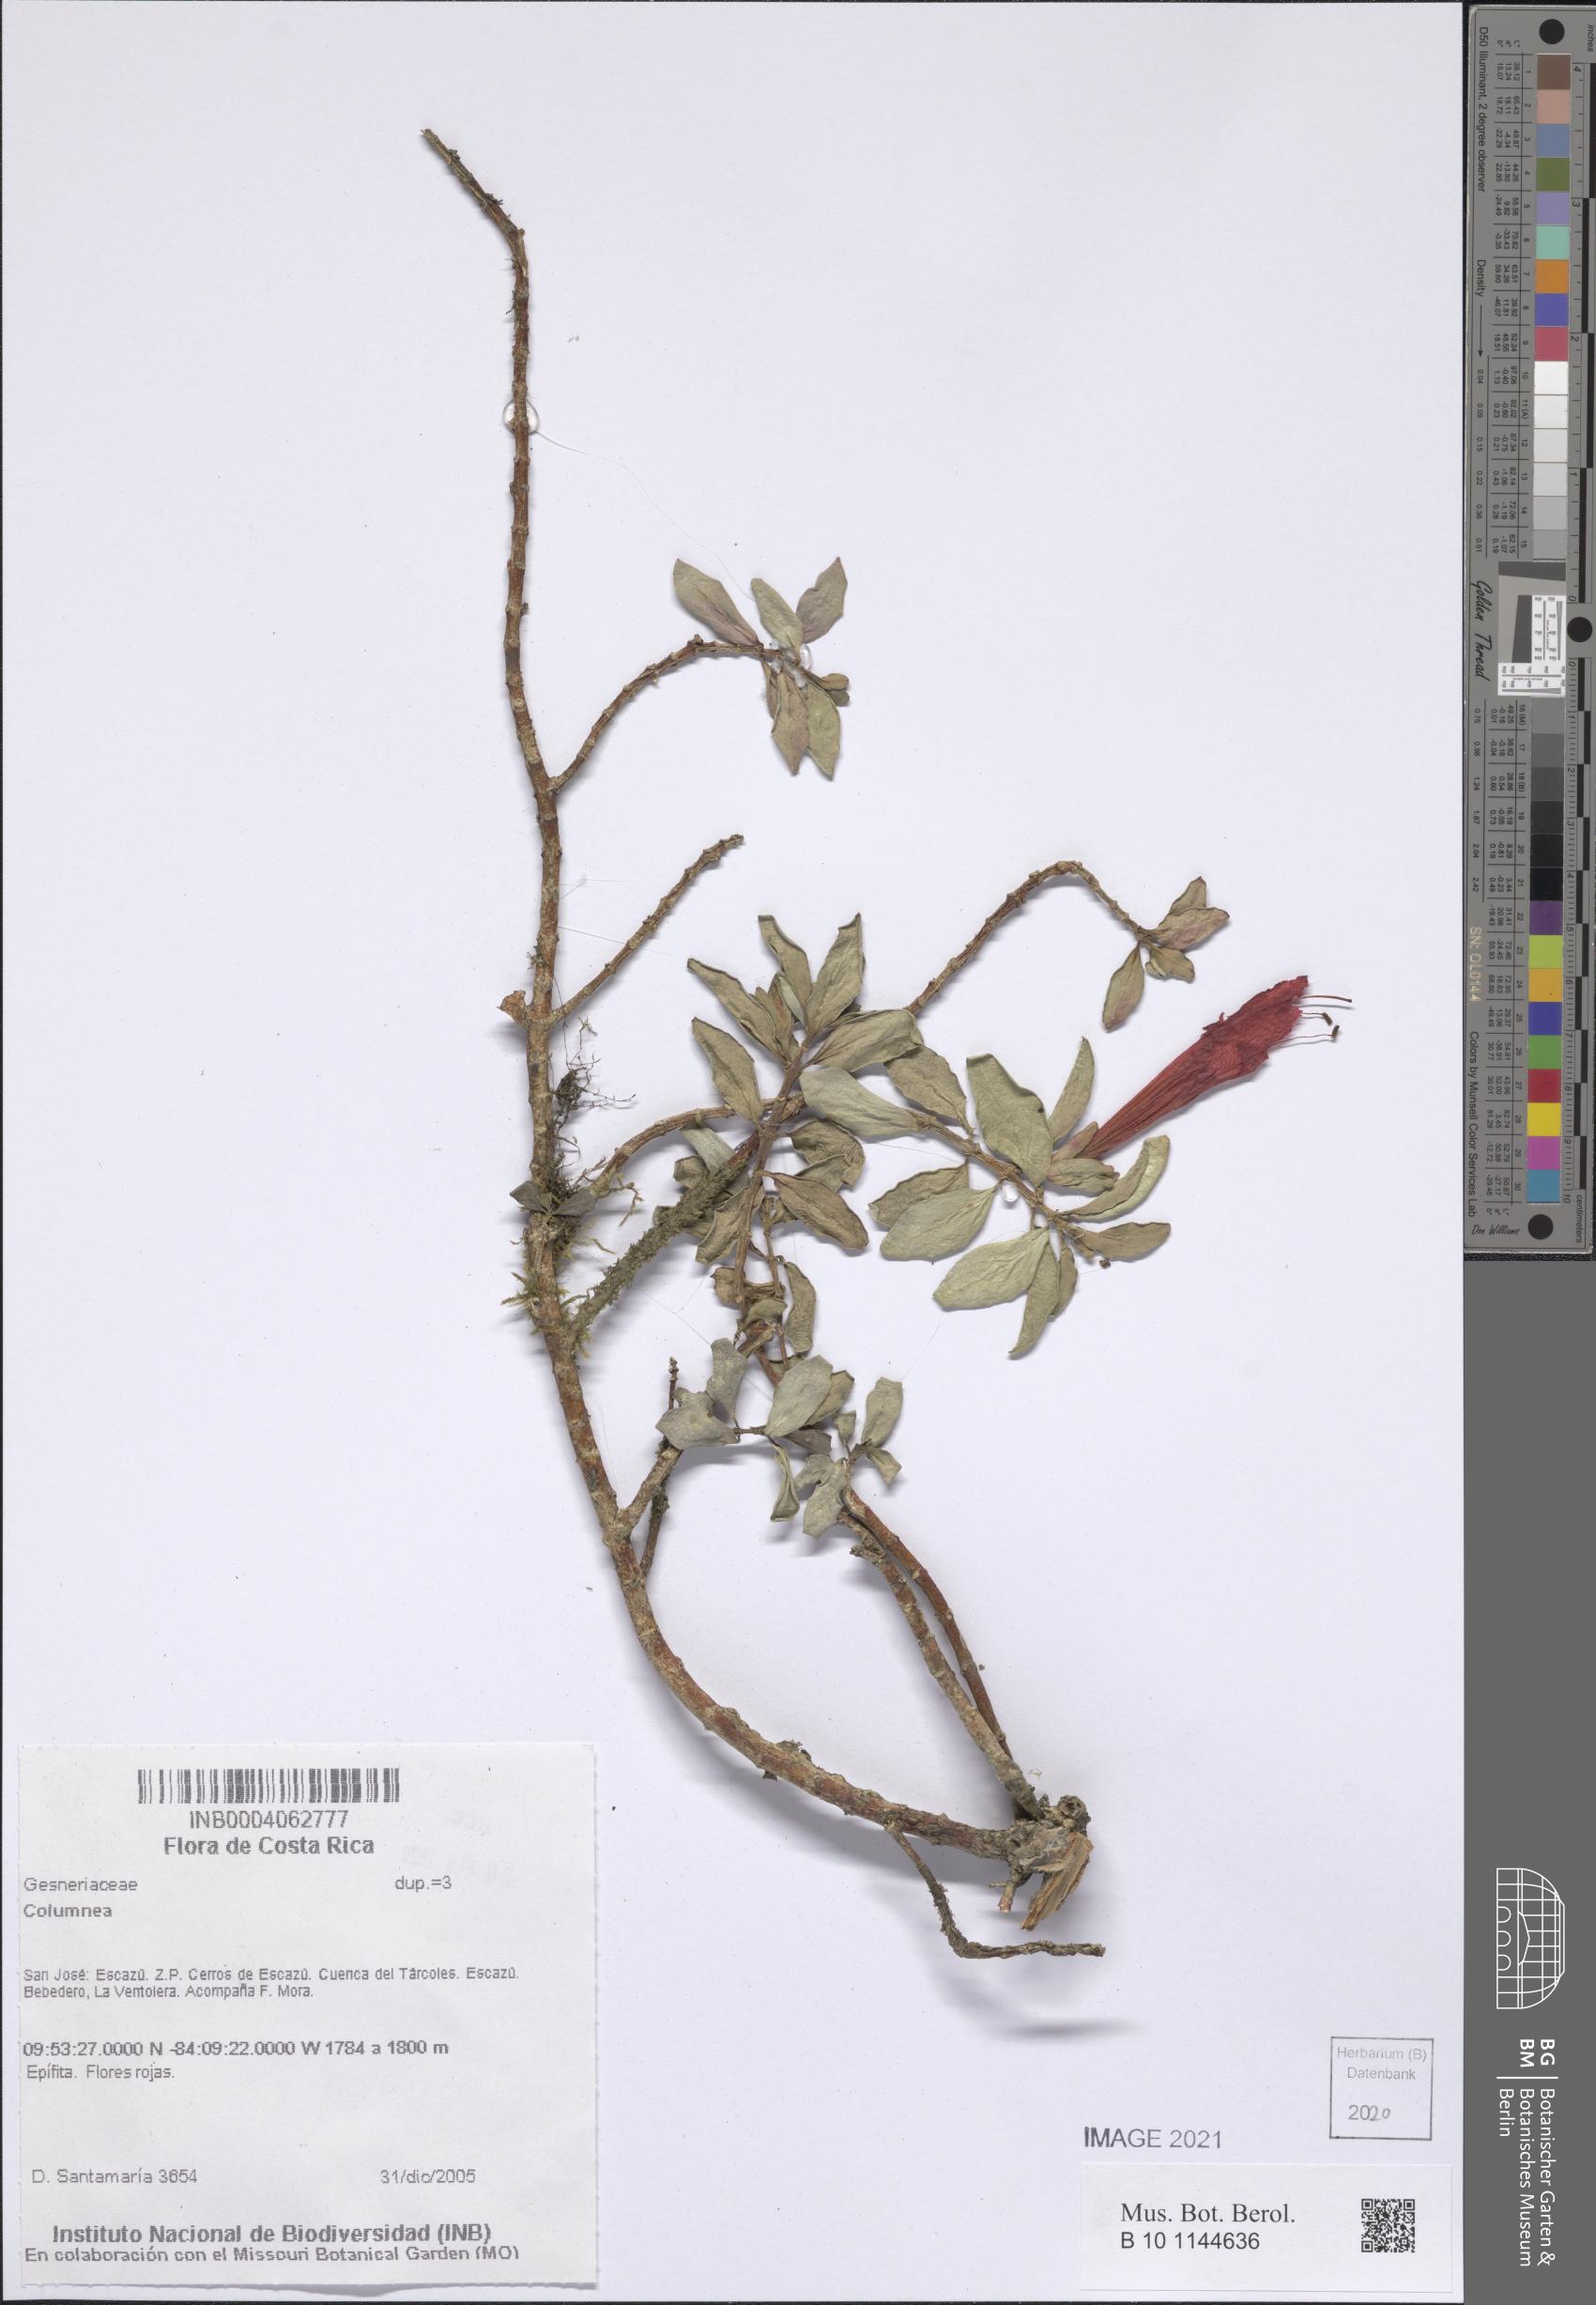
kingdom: Plantae
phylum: Tracheophyta
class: Magnoliopsida
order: Lamiales
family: Gesneriaceae
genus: Columnea
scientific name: Columnea
